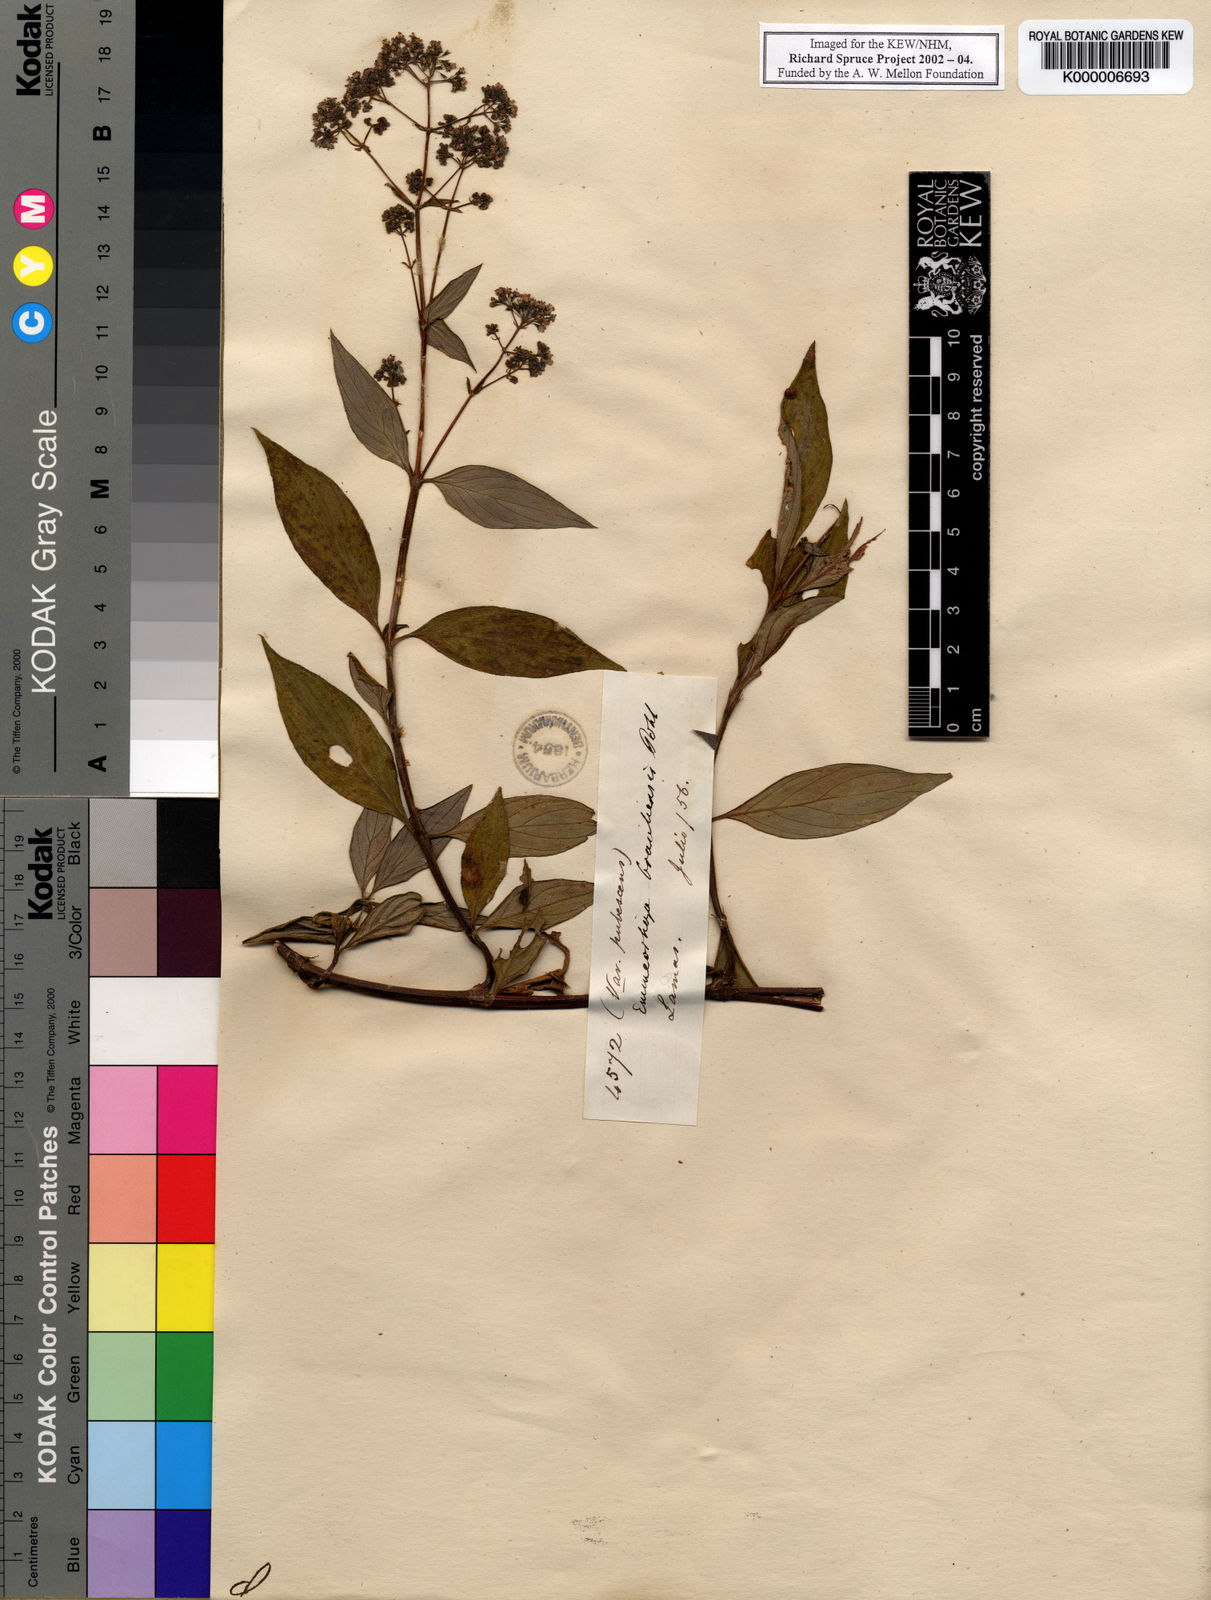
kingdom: Plantae
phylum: Tracheophyta
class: Magnoliopsida
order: Gentianales
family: Rubiaceae
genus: Emmeorhiza
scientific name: Emmeorhiza umbellata
